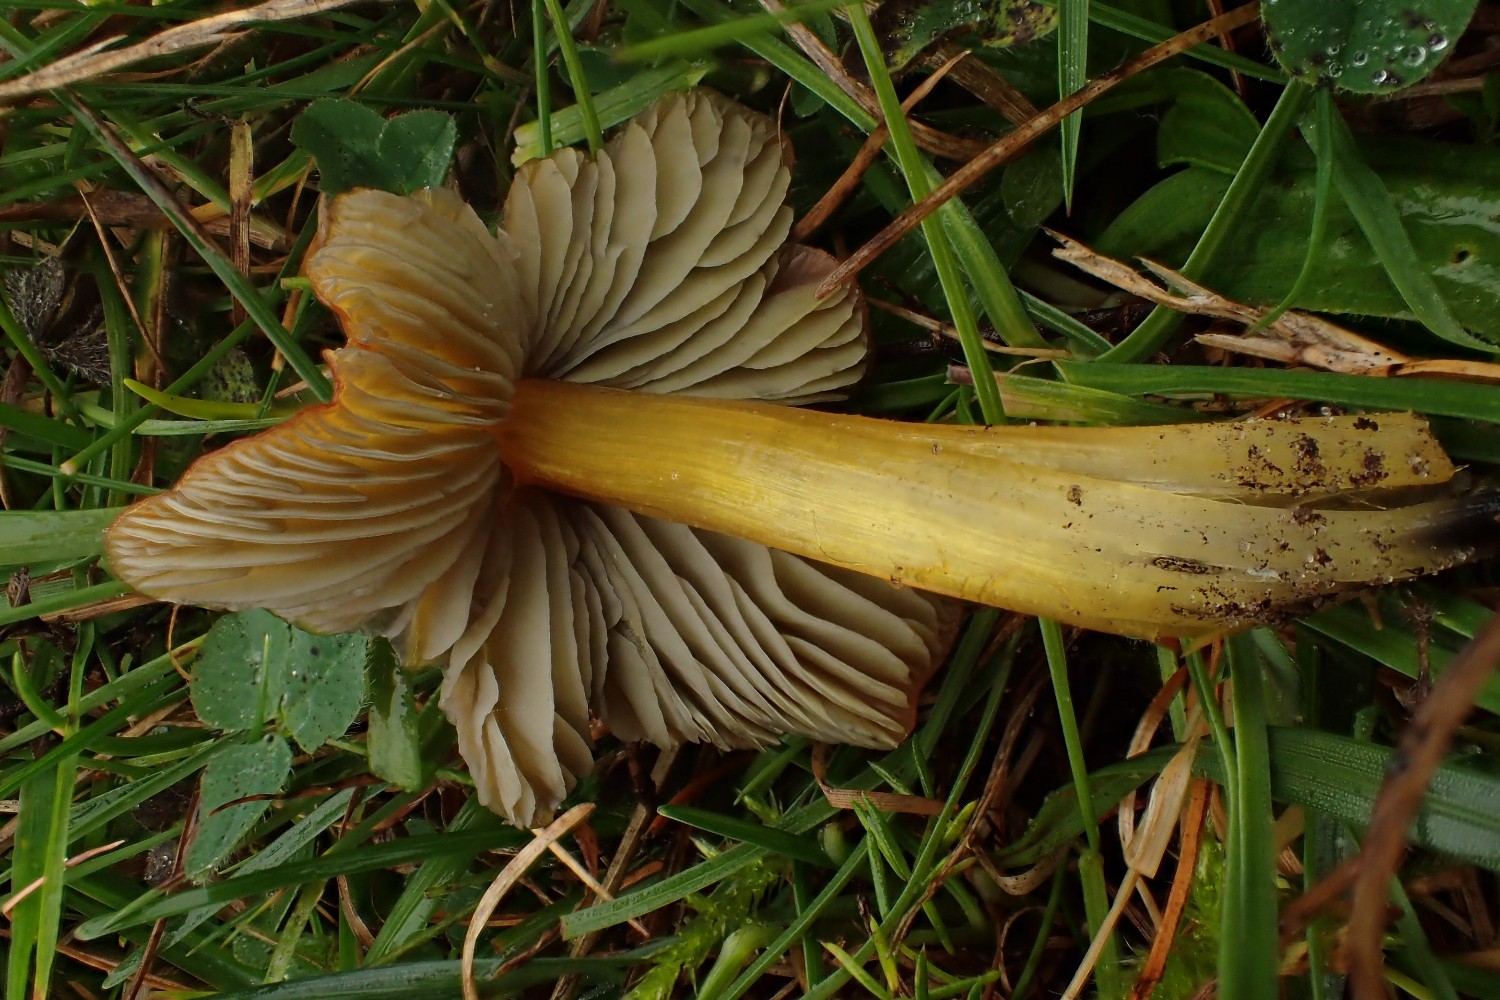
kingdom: Fungi
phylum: Basidiomycota
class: Agaricomycetes
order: Agaricales
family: Hygrophoraceae
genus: Hygrocybe
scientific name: Hygrocybe conica
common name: kegle-vokshat
